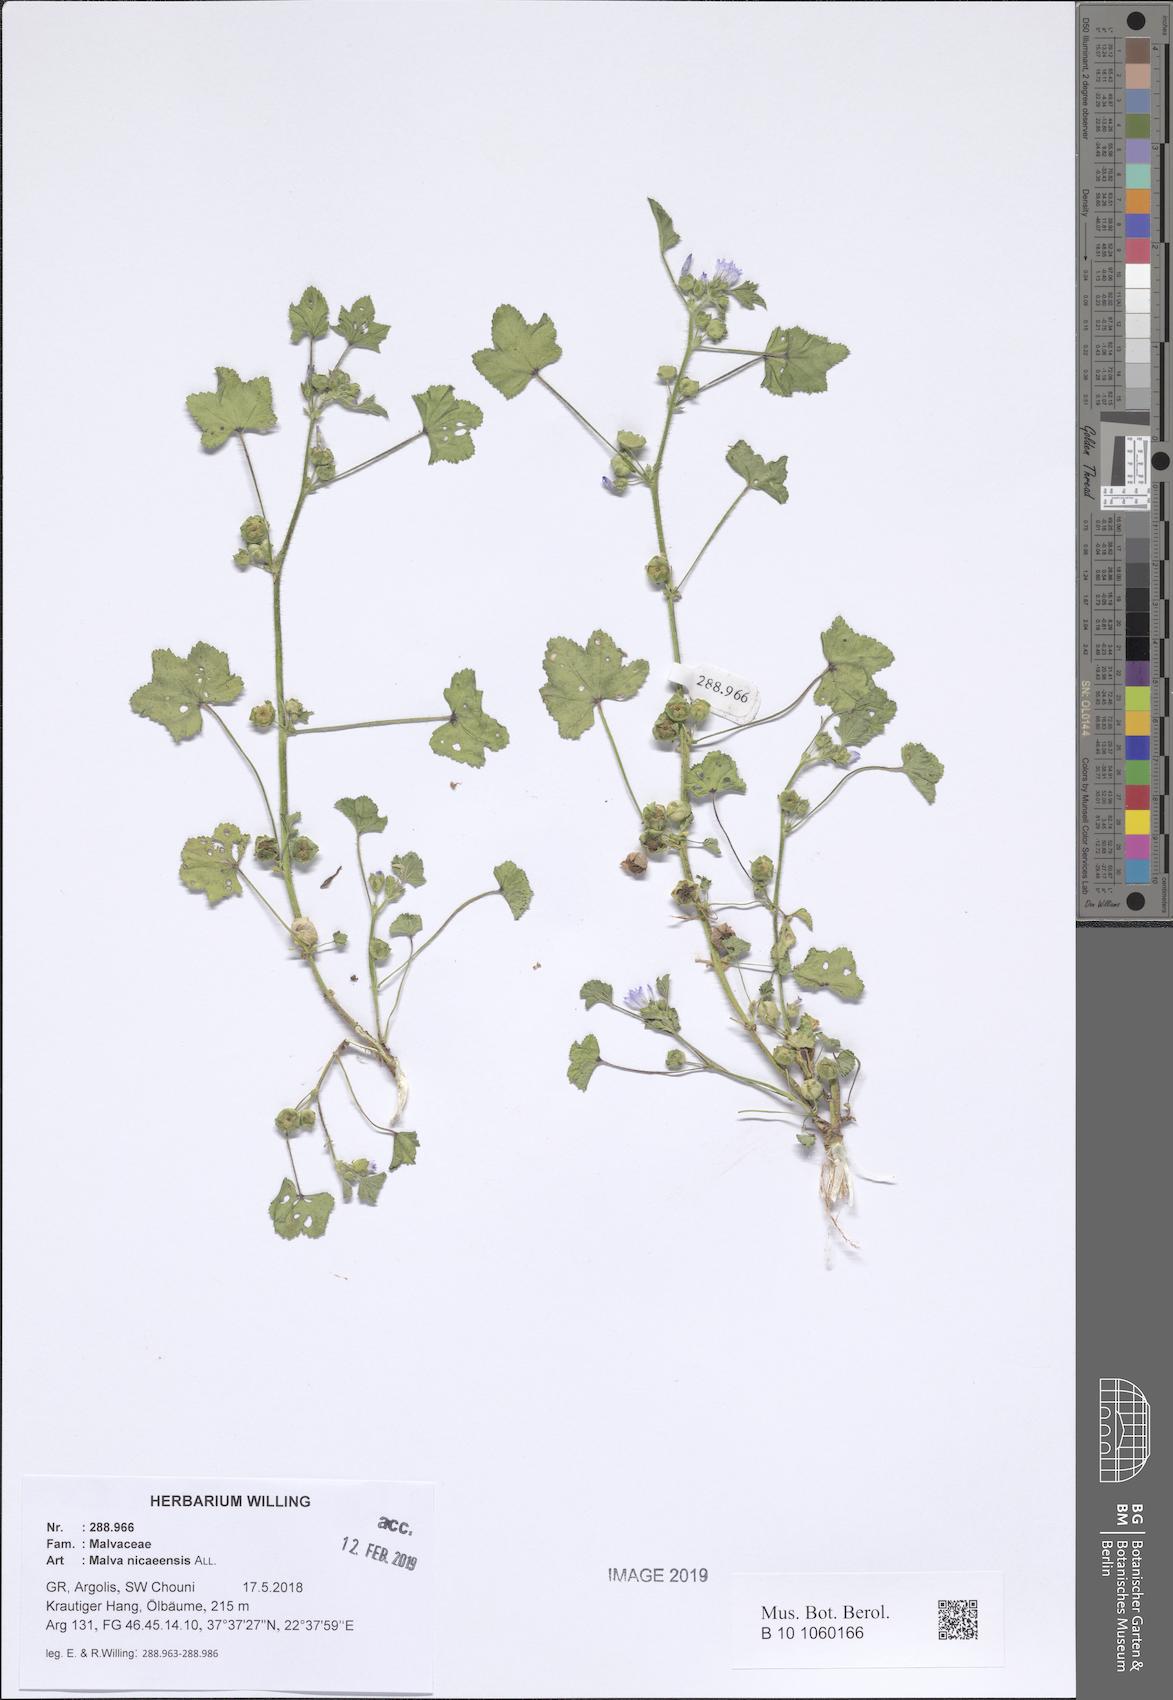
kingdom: Plantae
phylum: Tracheophyta
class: Magnoliopsida
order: Malvales
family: Malvaceae
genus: Malva
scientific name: Malva nicaeensis
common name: French mallow
